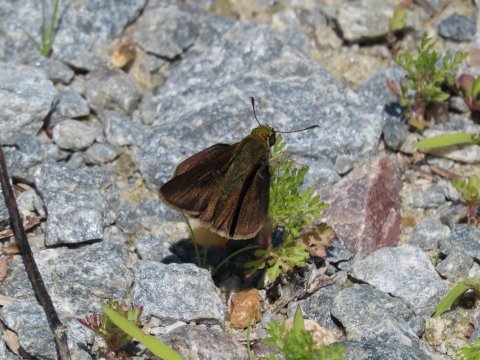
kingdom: Animalia
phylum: Arthropoda
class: Insecta
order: Lepidoptera
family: Hesperiidae
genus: Euphyes
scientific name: Euphyes vestris
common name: Dun Skipper
